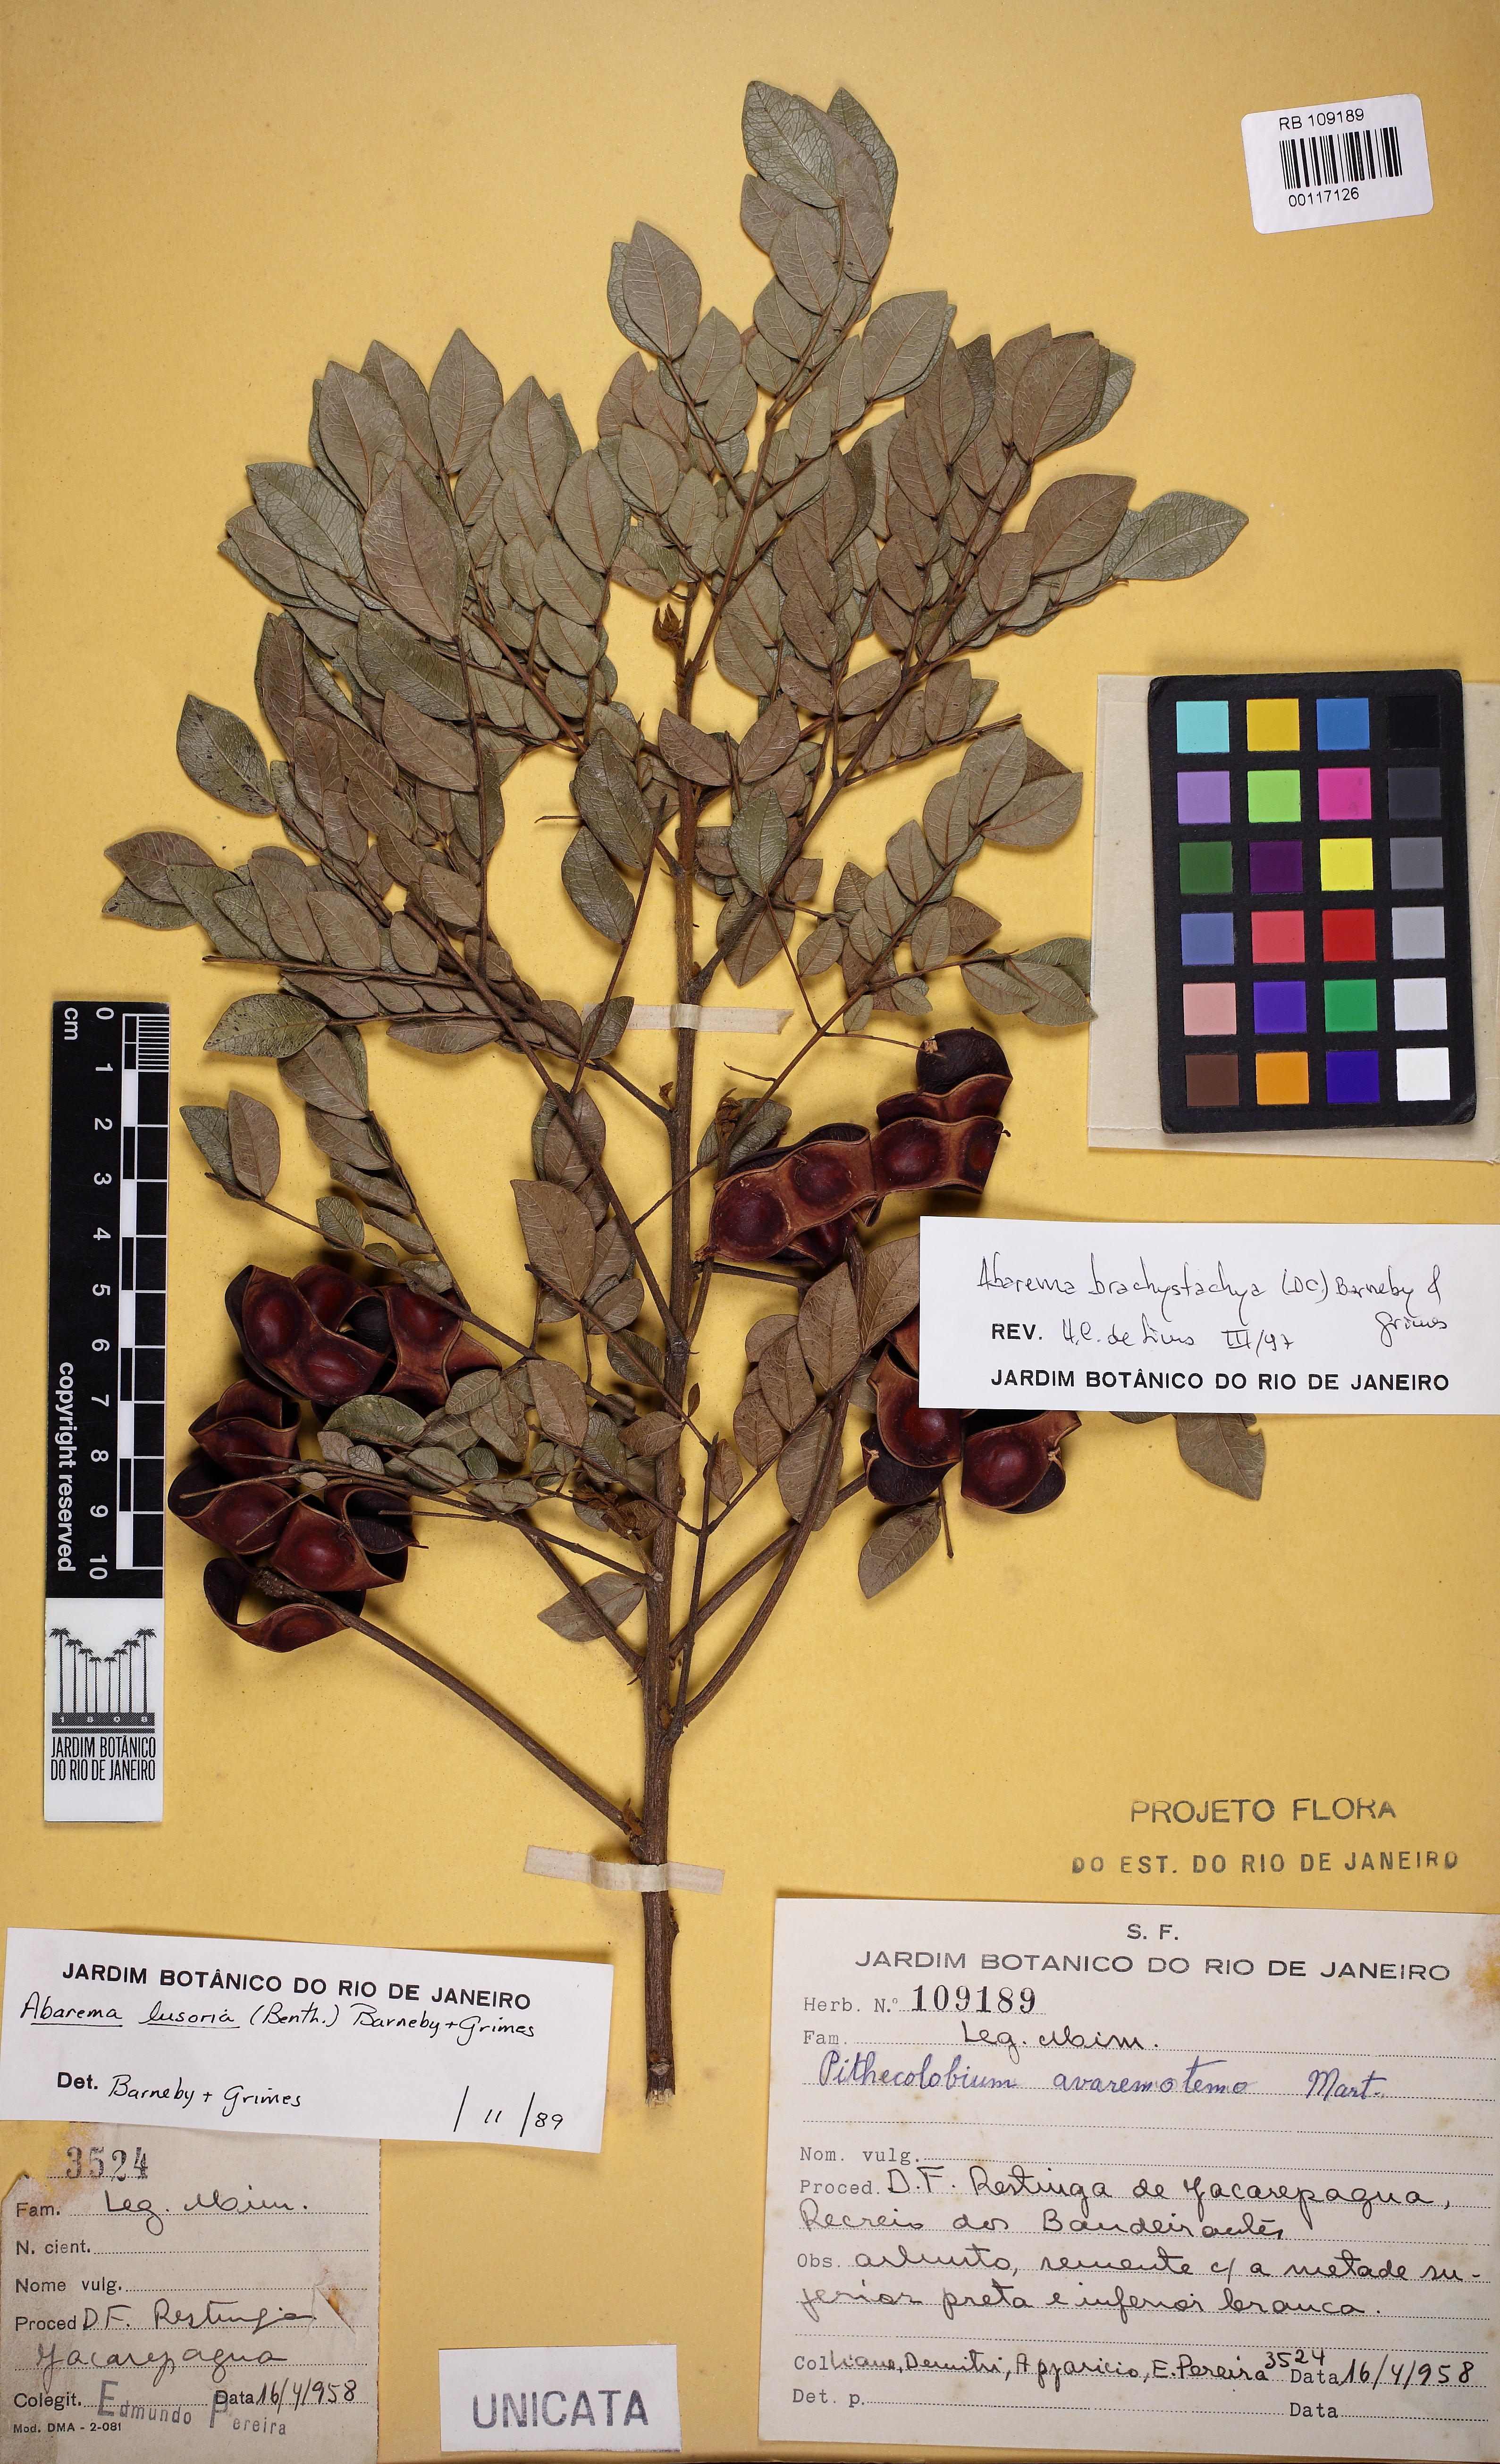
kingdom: Plantae
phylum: Tracheophyta
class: Magnoliopsida
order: Fabales
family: Fabaceae
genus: Jupunba
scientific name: Jupunba brachystachya
